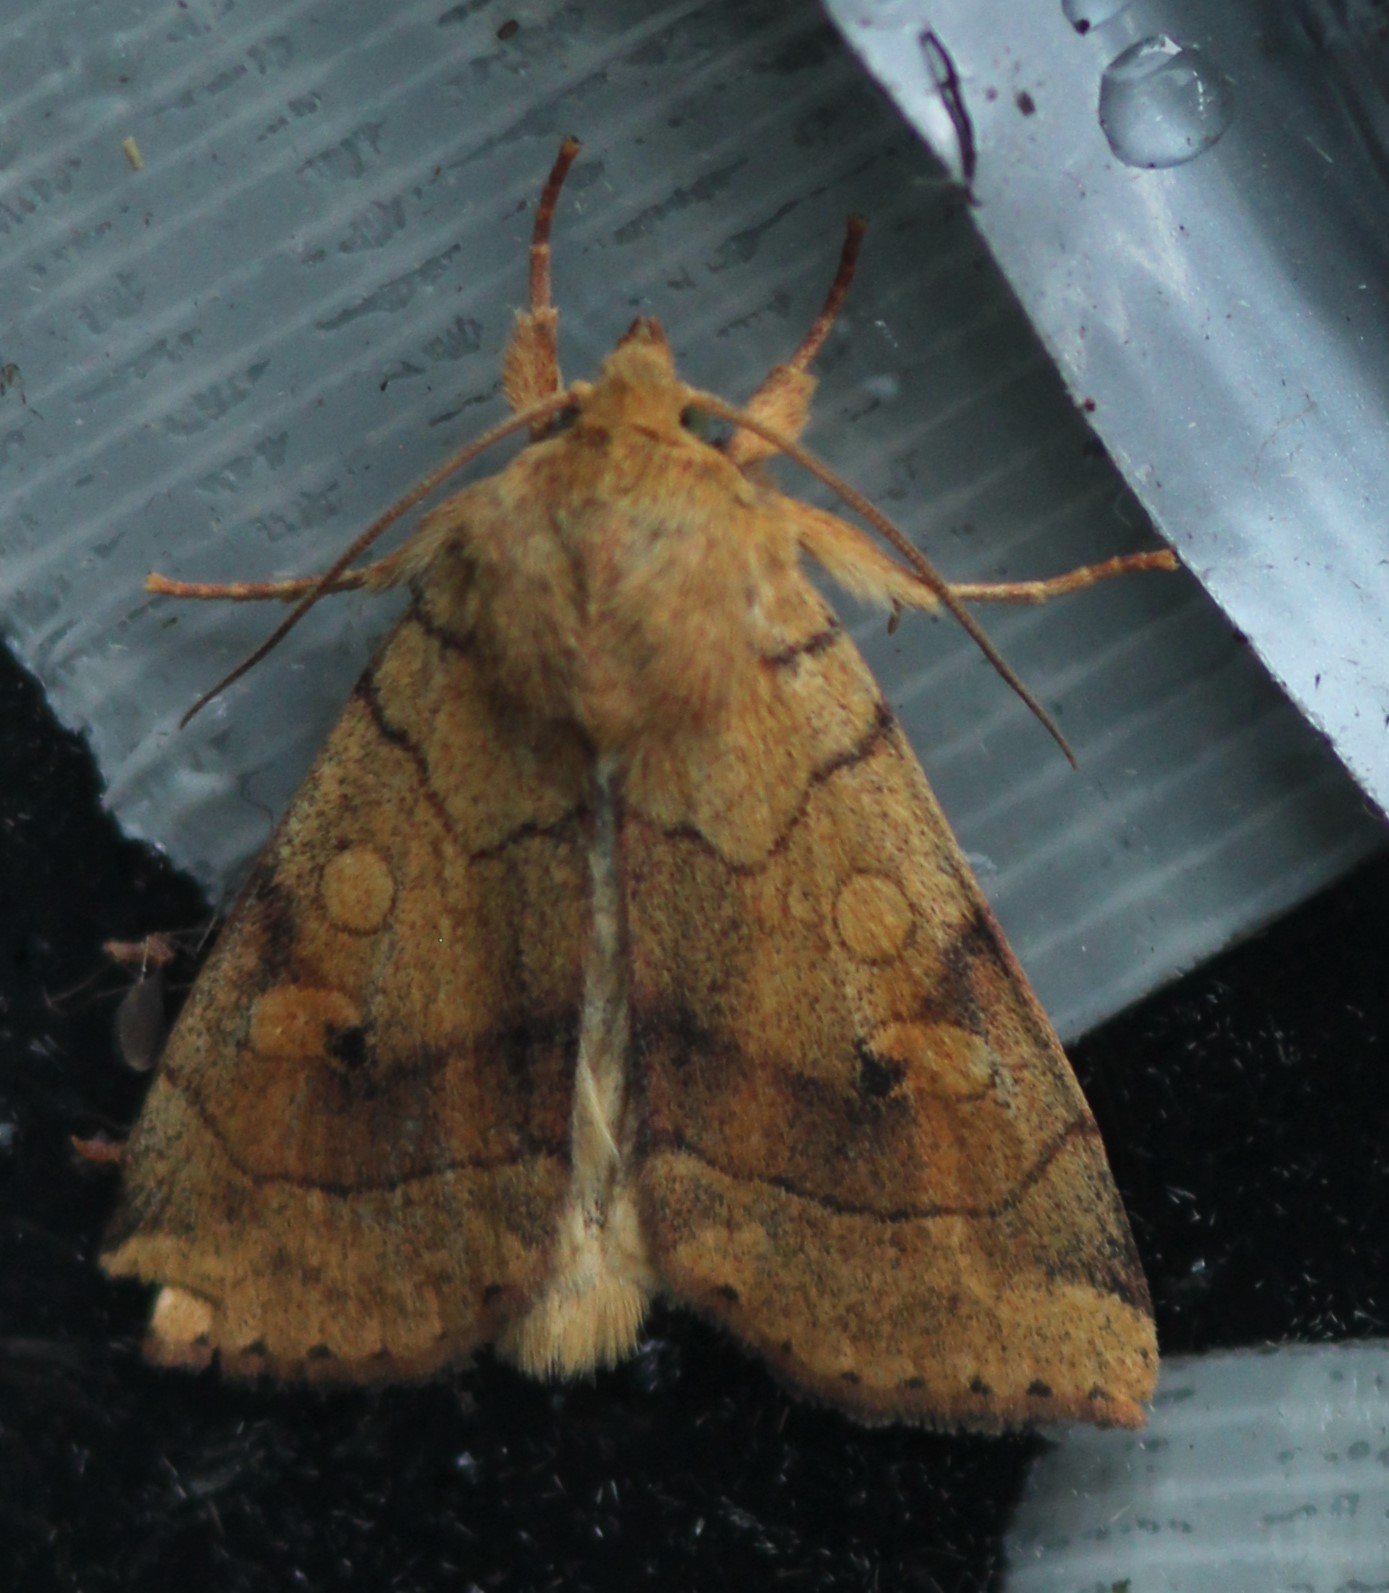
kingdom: Animalia
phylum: Arthropoda
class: Insecta
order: Lepidoptera
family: Noctuidae
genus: Enargia
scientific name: Enargia paleacea
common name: Angle-striped sallow
